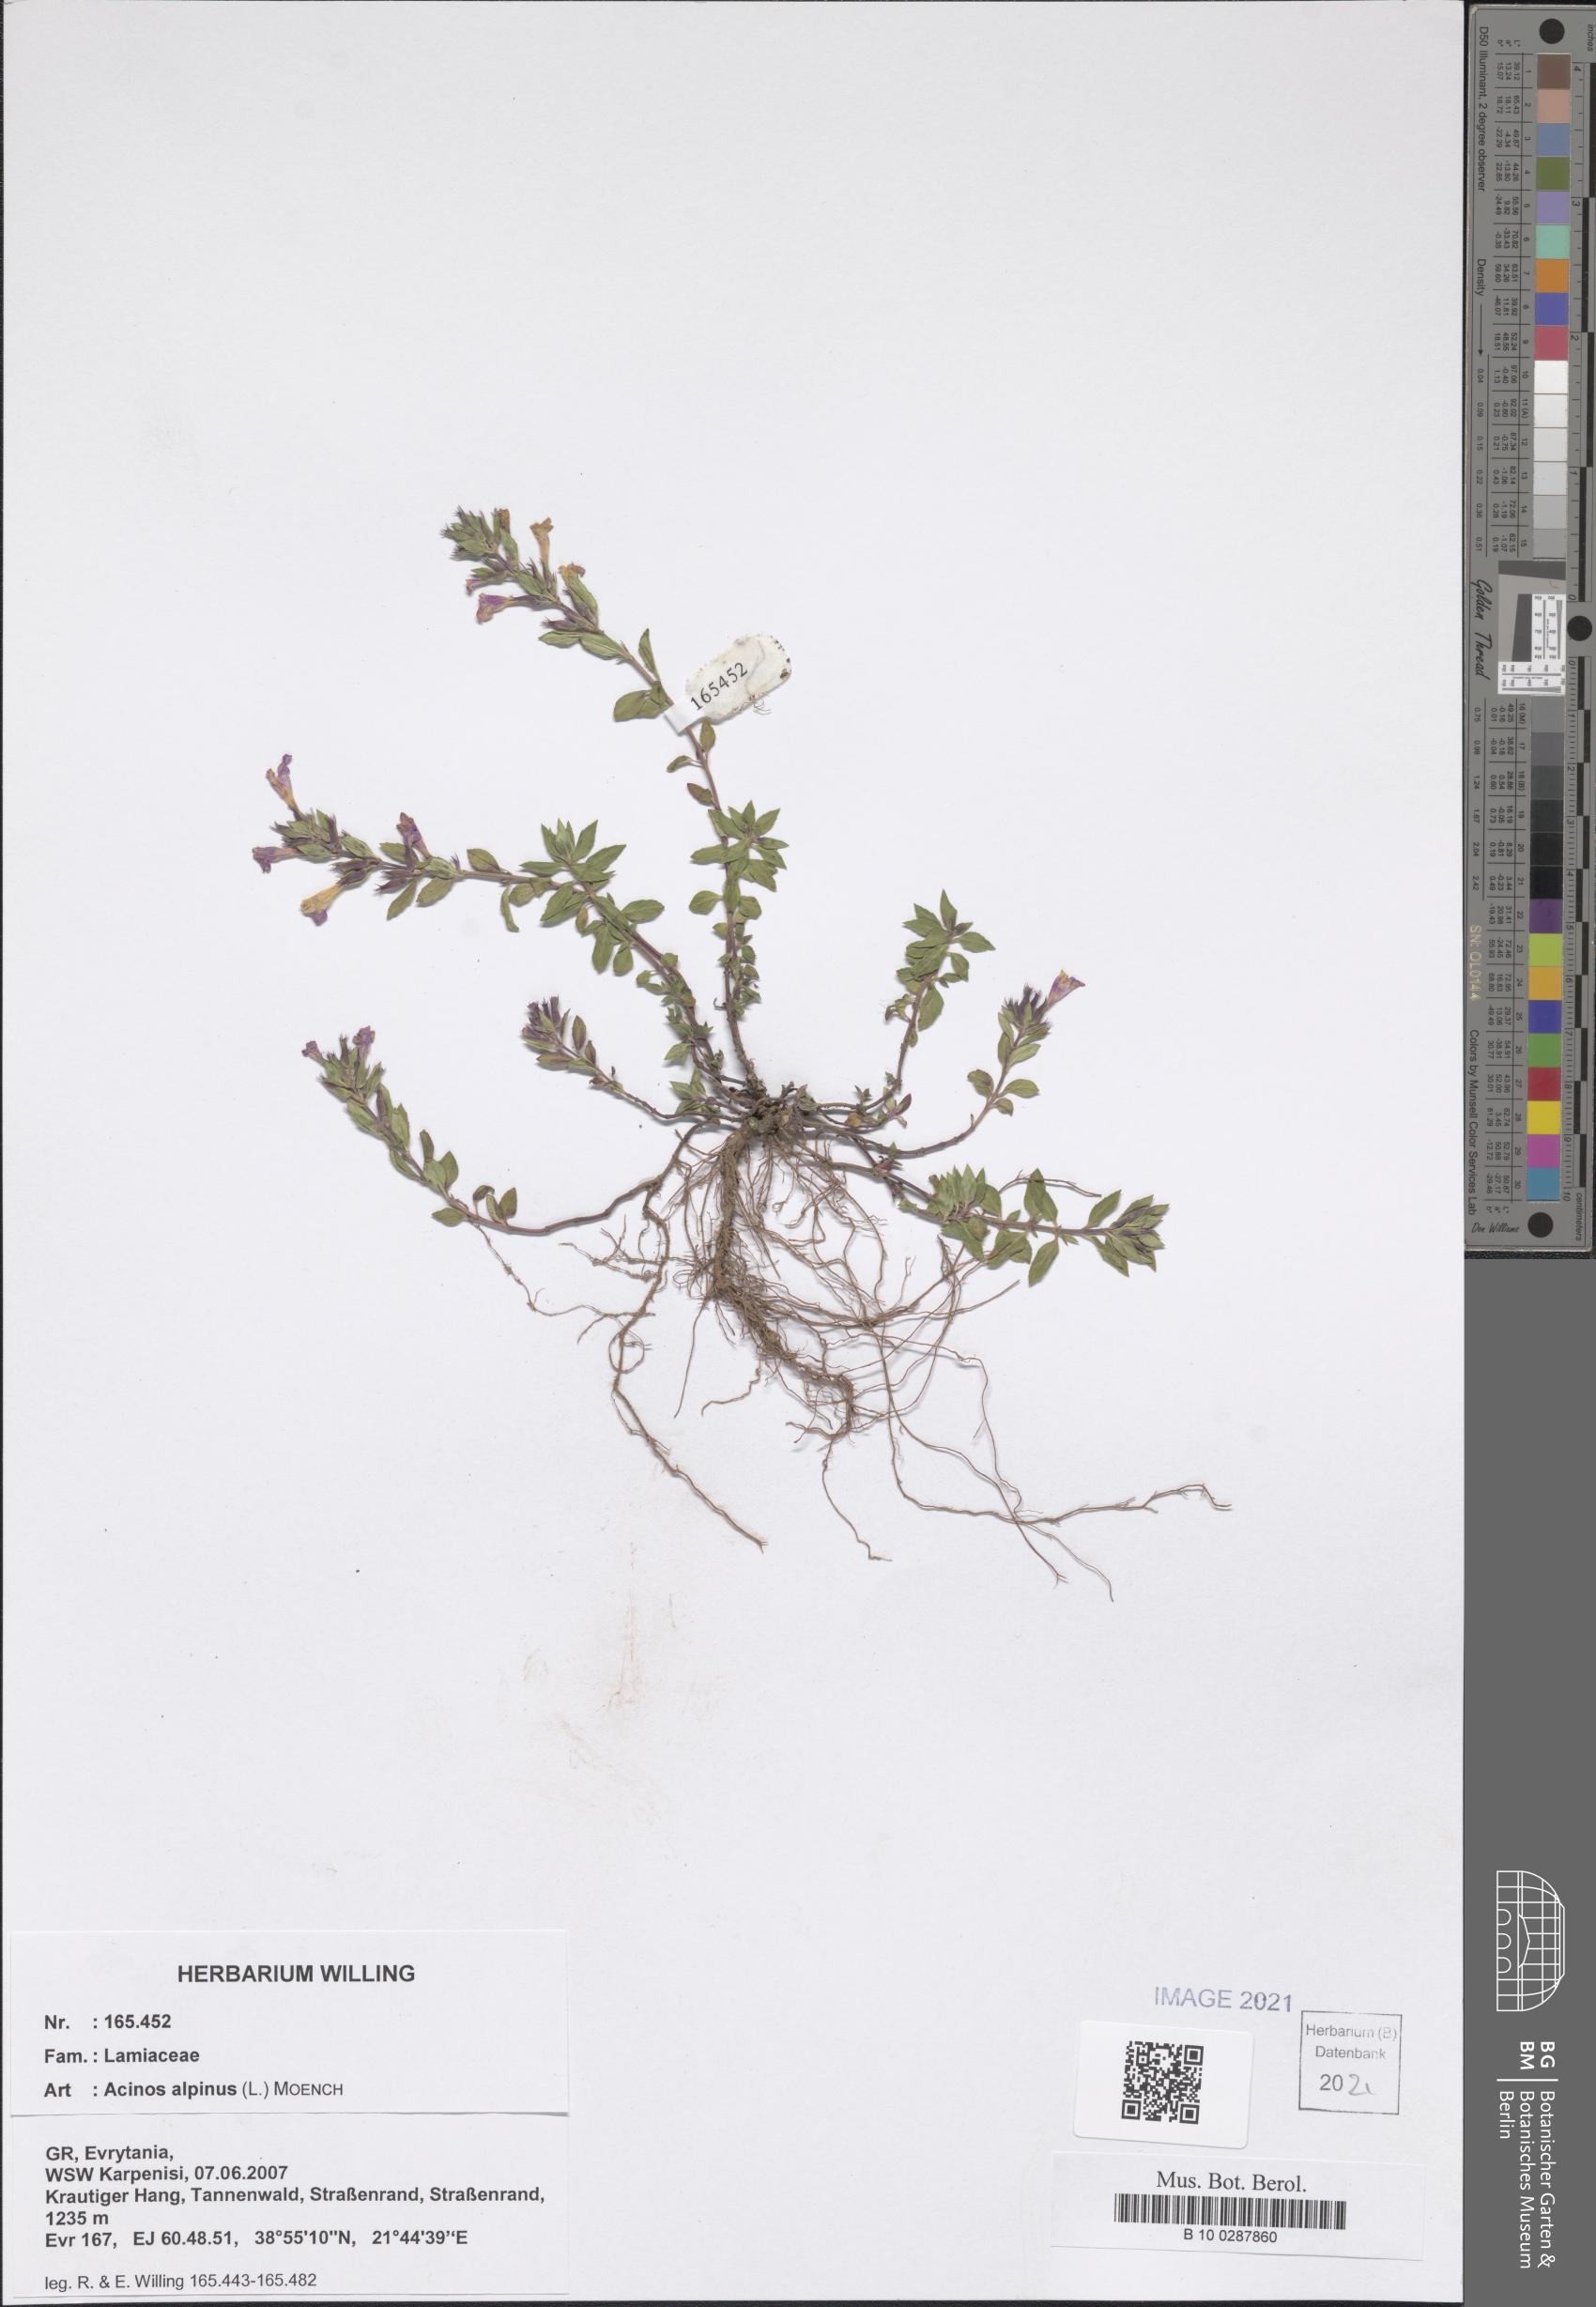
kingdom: Plantae
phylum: Tracheophyta
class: Magnoliopsida
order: Lamiales
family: Lamiaceae
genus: Clinopodium
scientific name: Clinopodium alpinum
